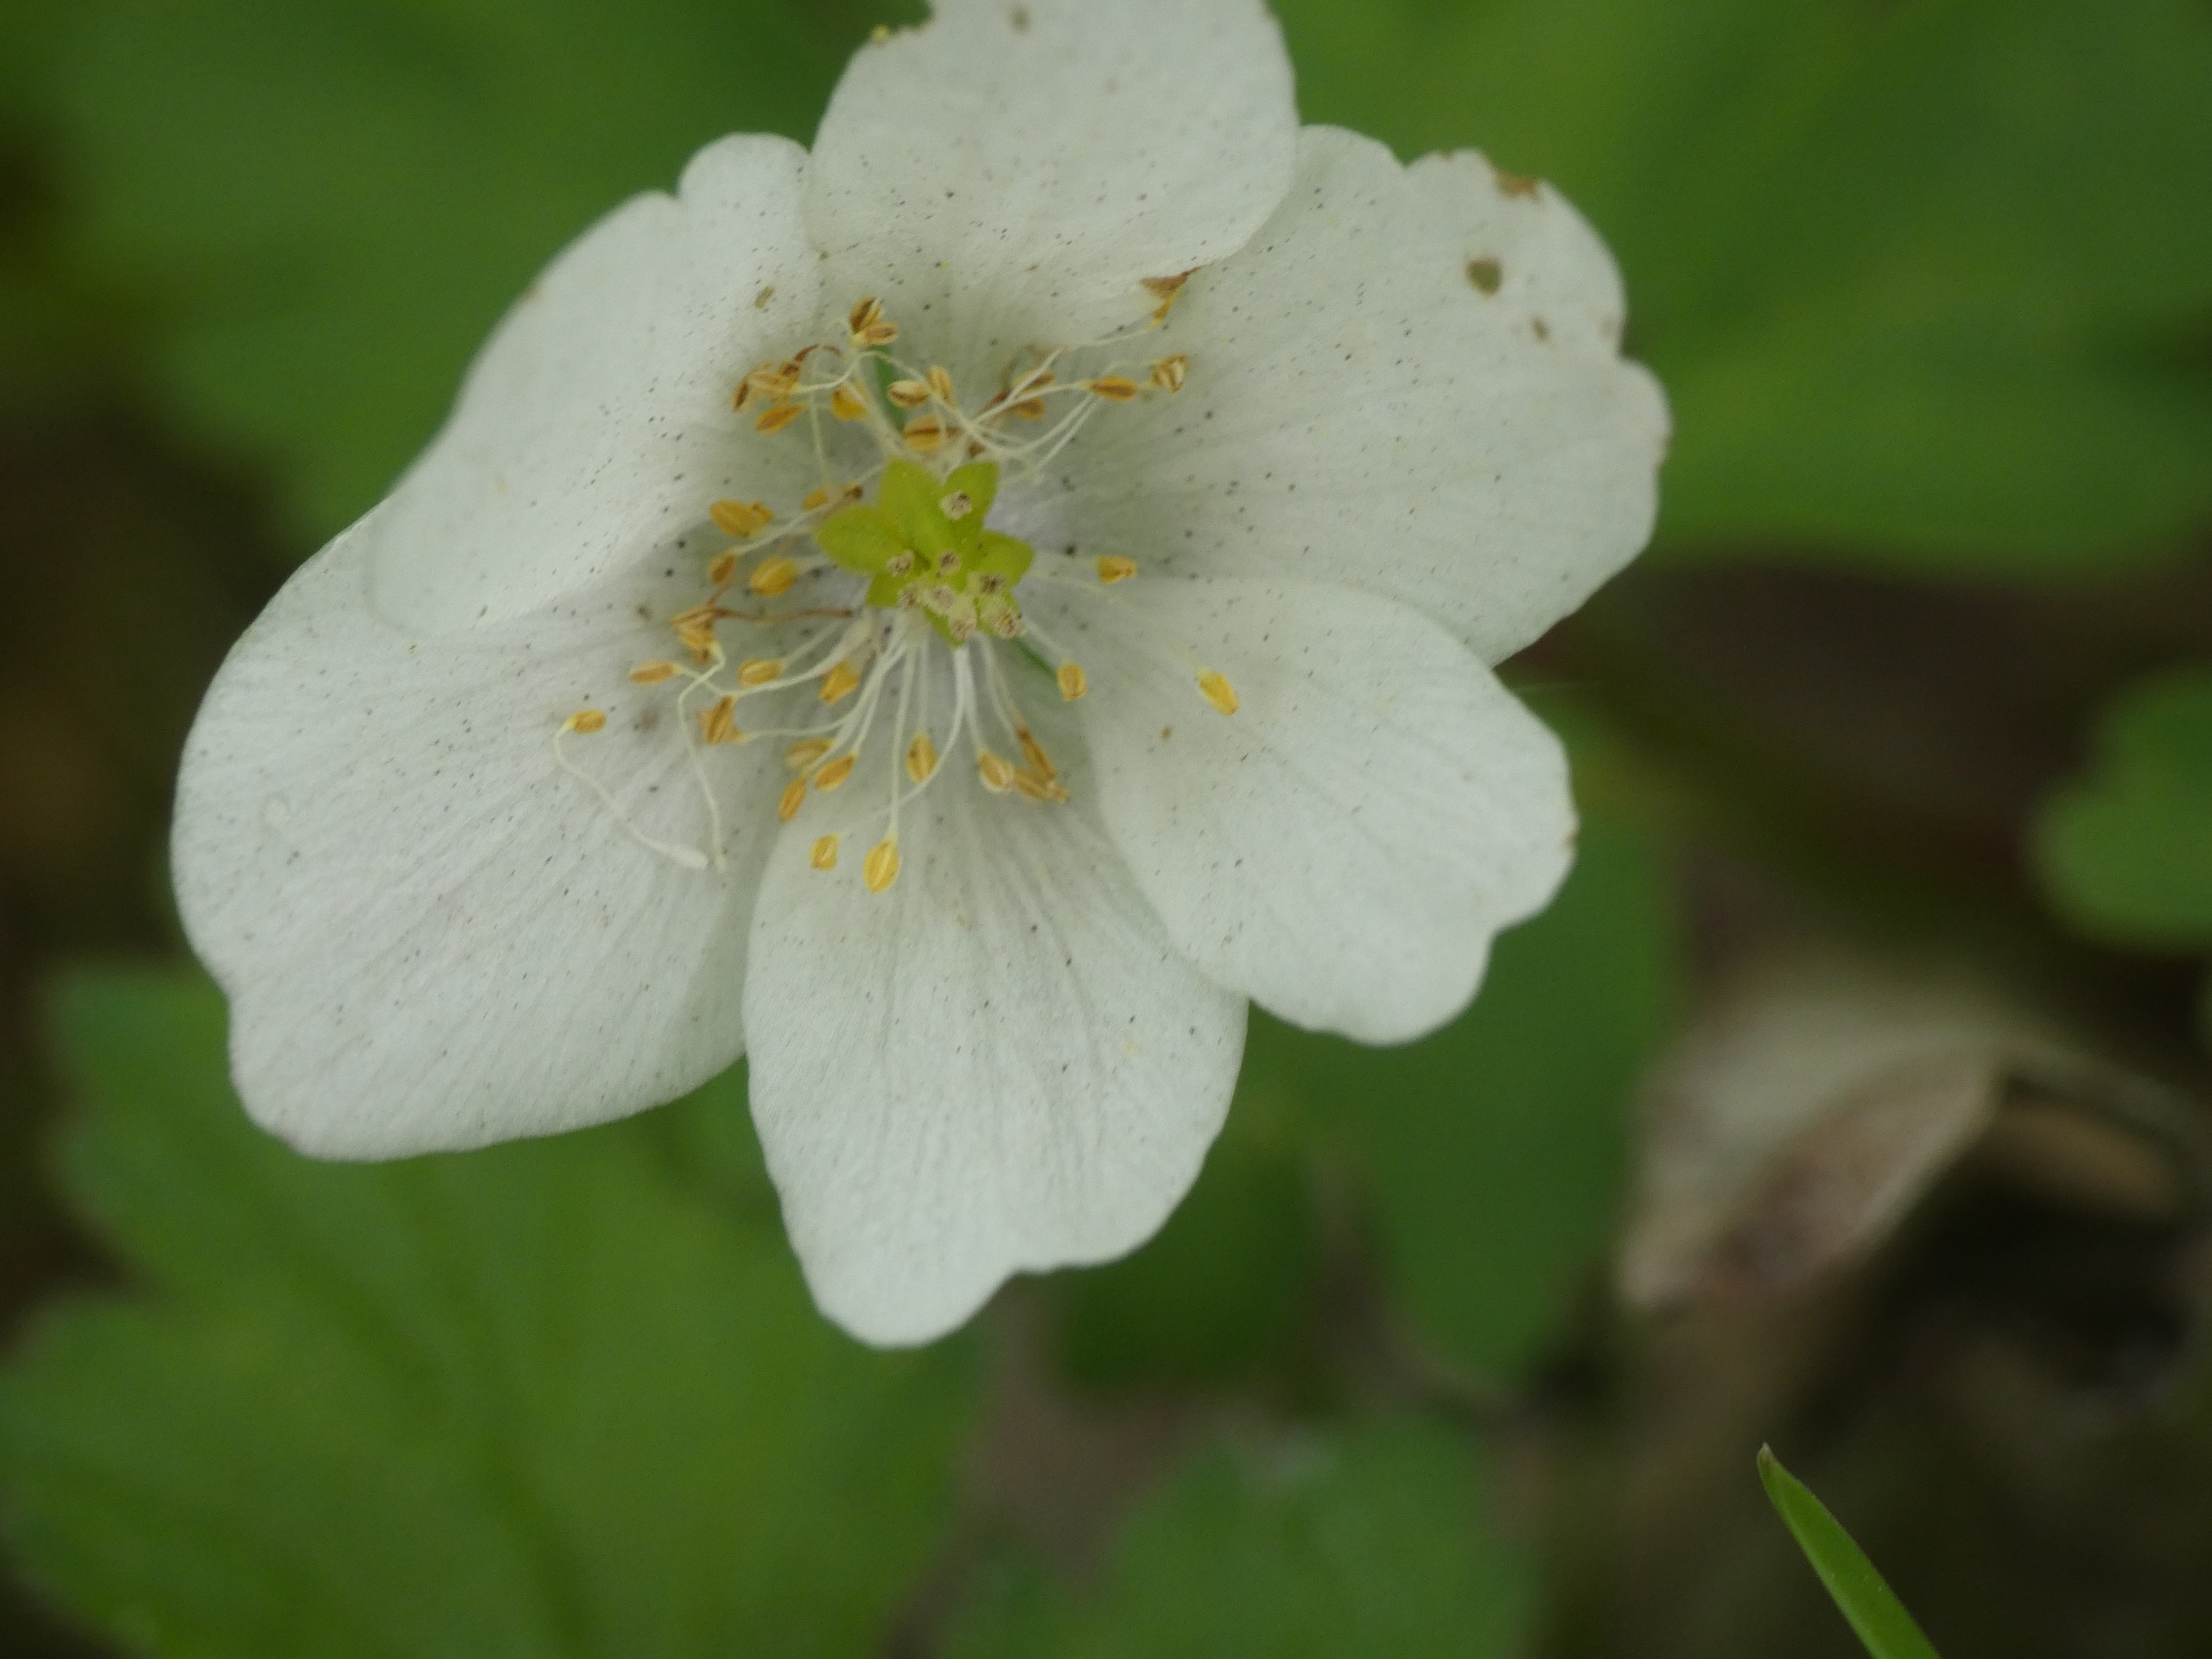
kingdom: Plantae
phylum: Tracheophyta
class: Magnoliopsida
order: Ranunculales
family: Ranunculaceae
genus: Anemone
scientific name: Anemone nemorosa
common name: Hvid anemone
